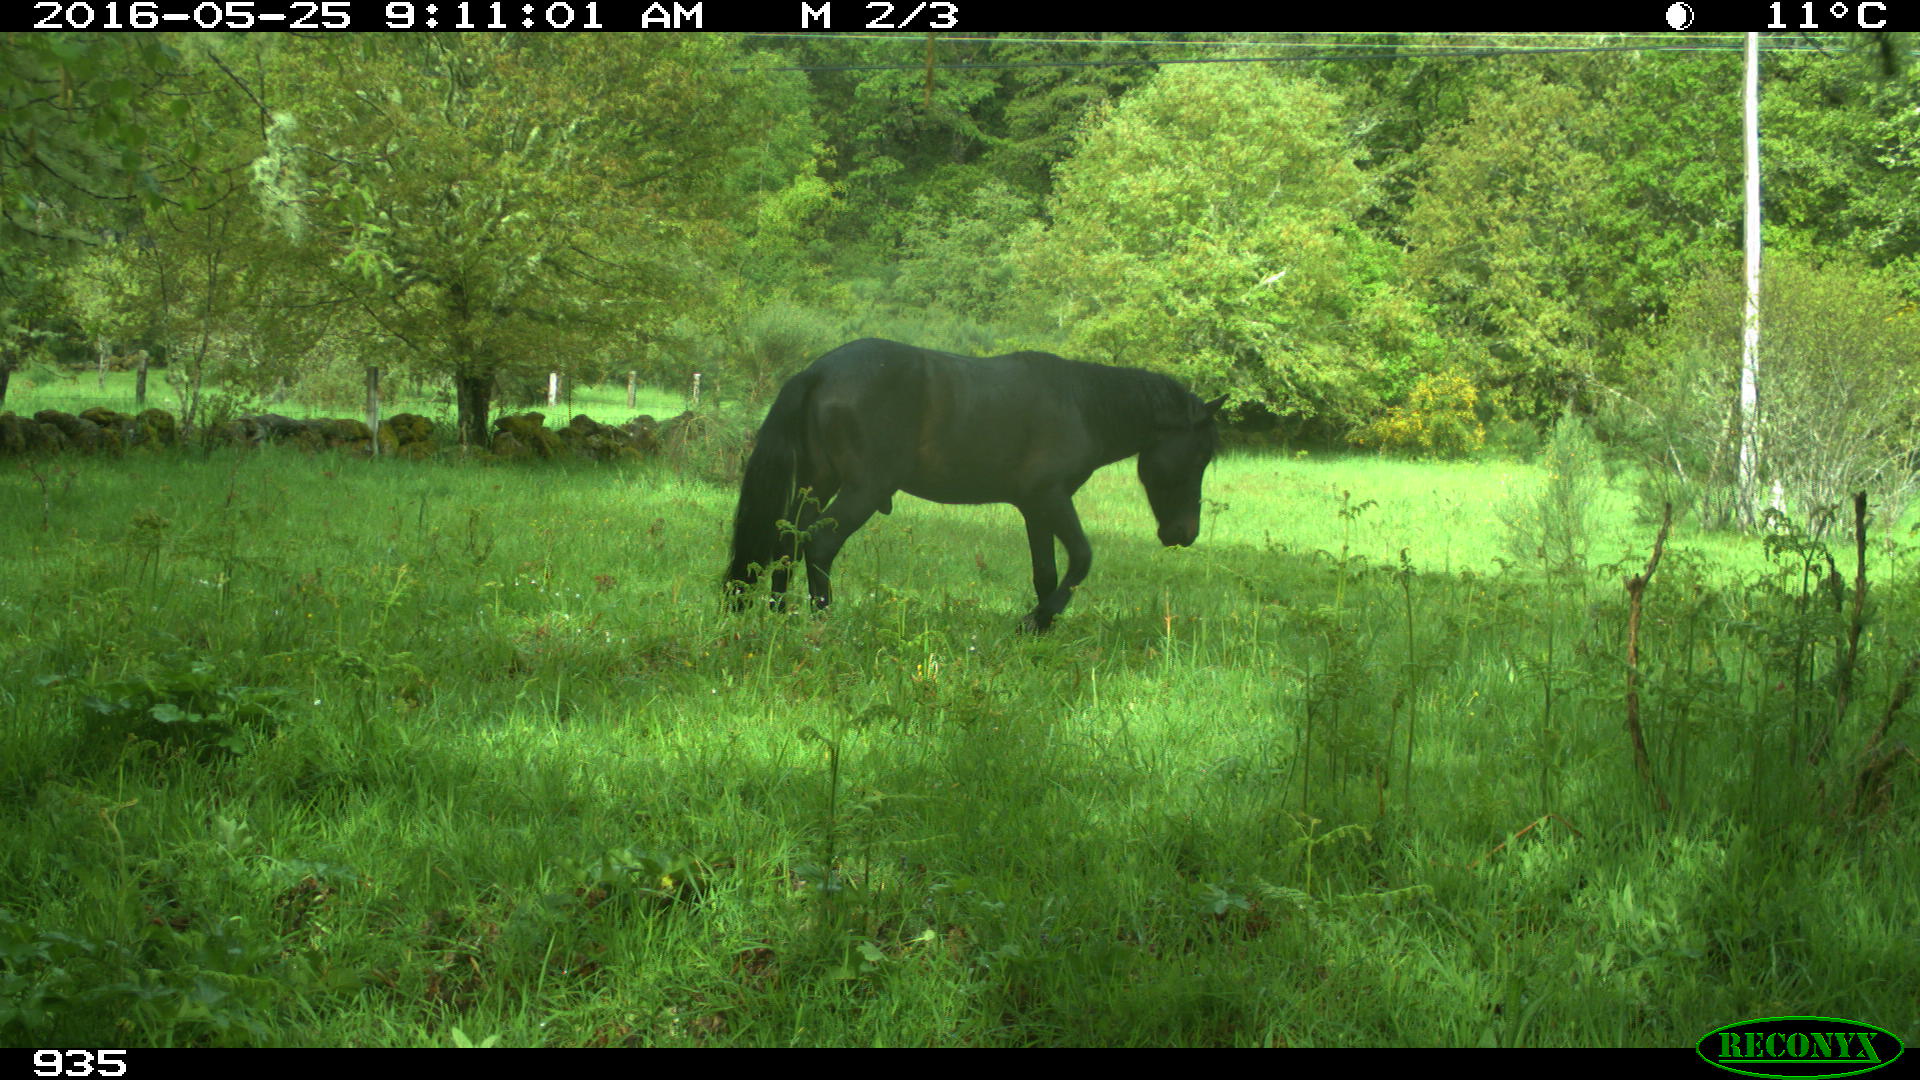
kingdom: Animalia
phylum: Chordata
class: Mammalia
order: Perissodactyla
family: Equidae
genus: Equus
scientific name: Equus caballus
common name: Horse
